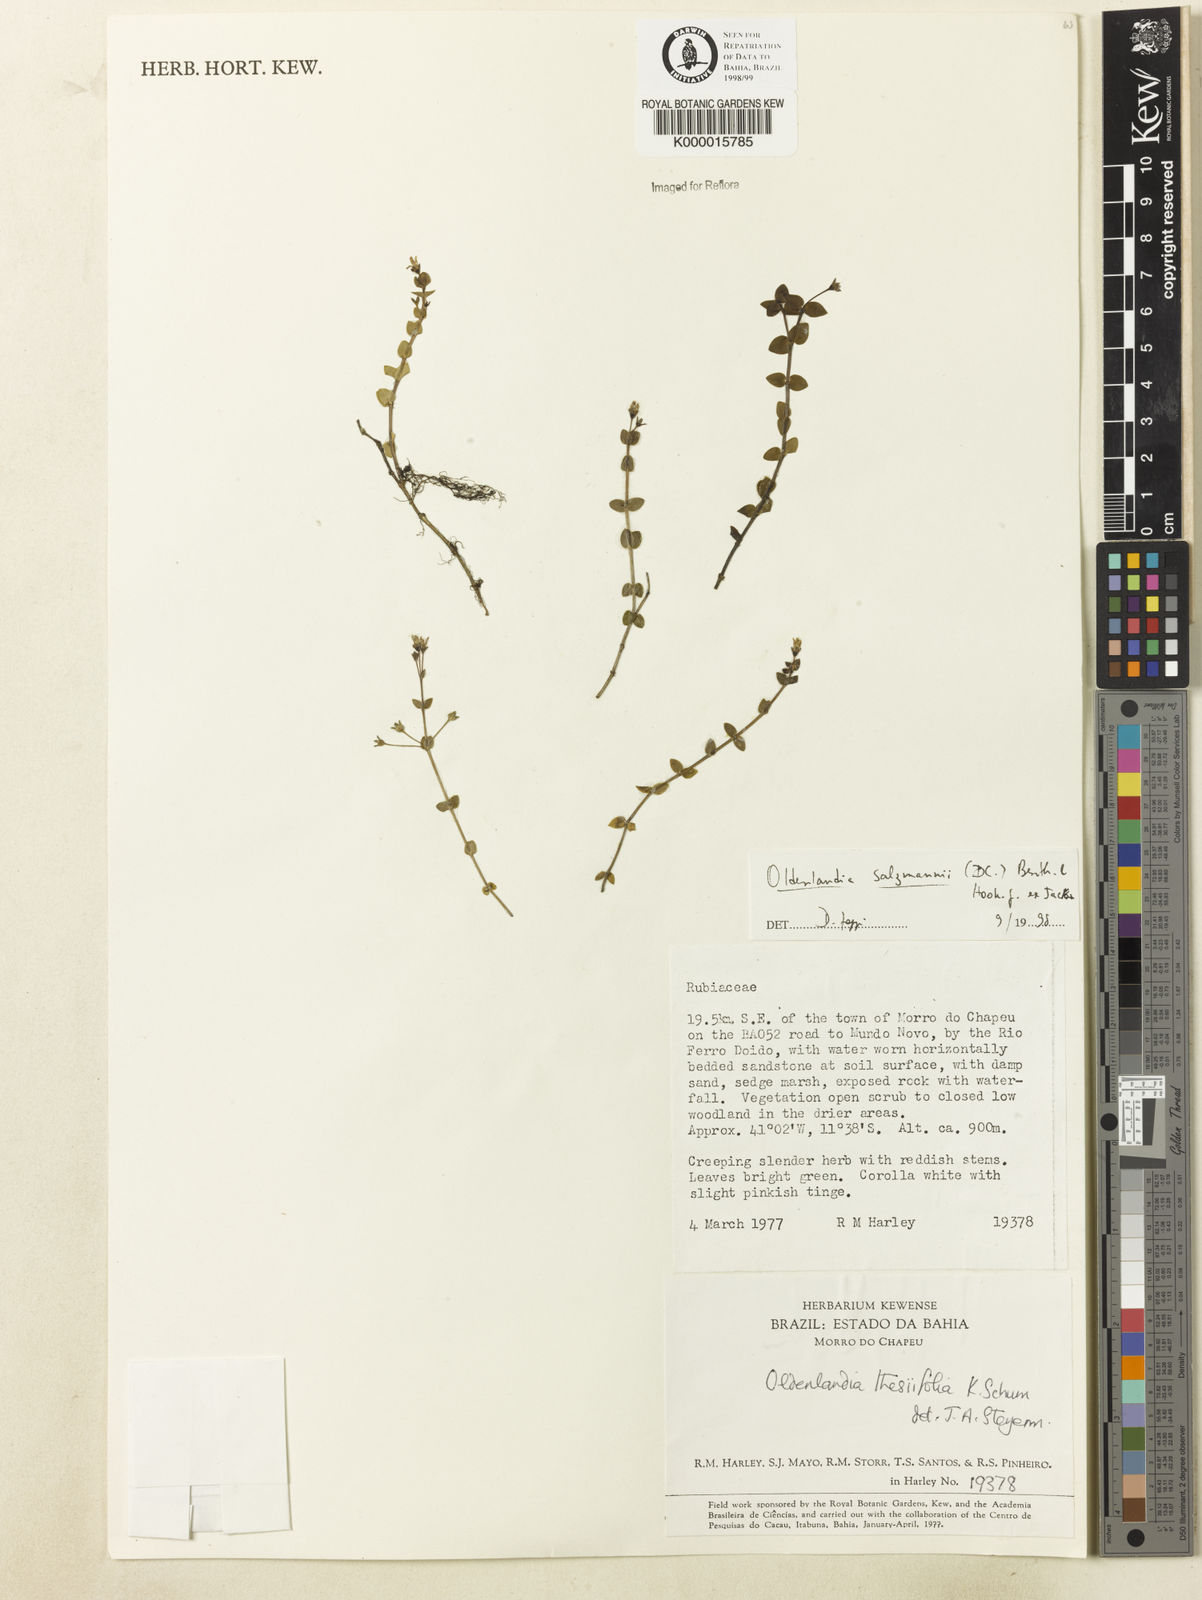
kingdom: Plantae
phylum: Tracheophyta
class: Magnoliopsida
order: Gentianales
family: Rubiaceae
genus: Oldenlandia
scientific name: Oldenlandia salzmannii
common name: Salzmann's mille graines
